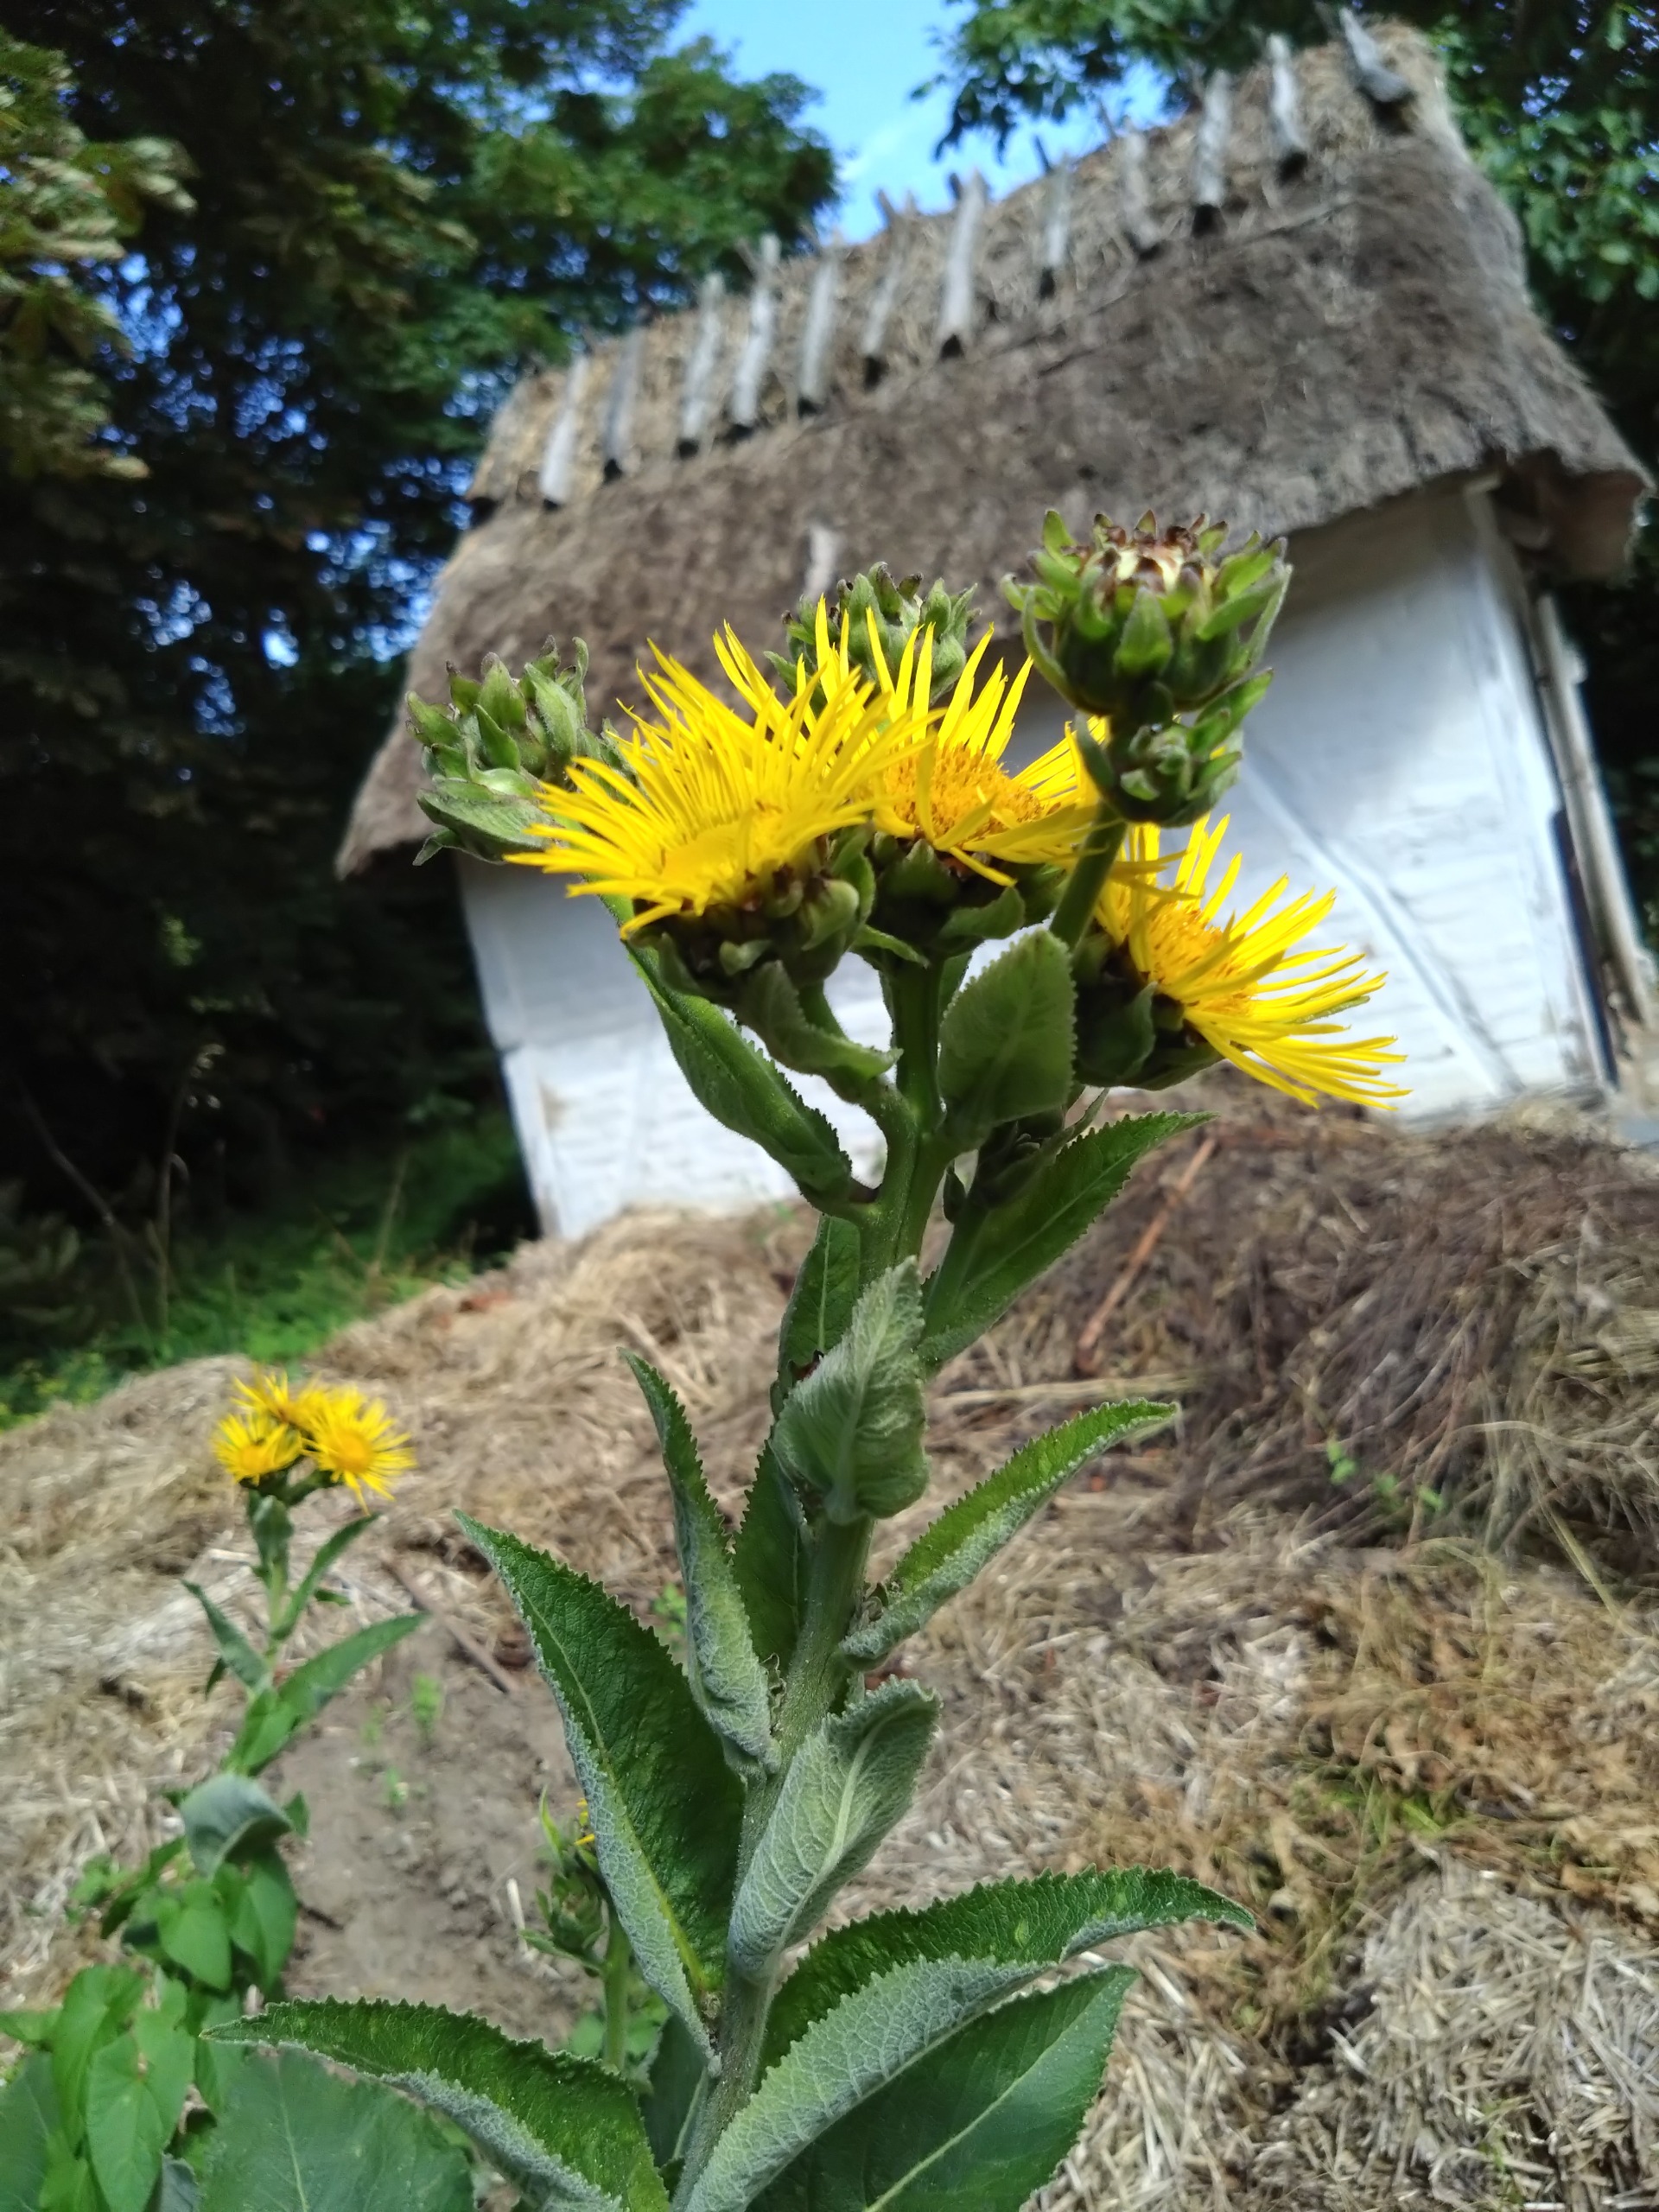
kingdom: Plantae
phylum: Tracheophyta
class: Magnoliopsida
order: Asterales
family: Asteraceae
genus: Inula
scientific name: Inula helenium
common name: Læge-alant
